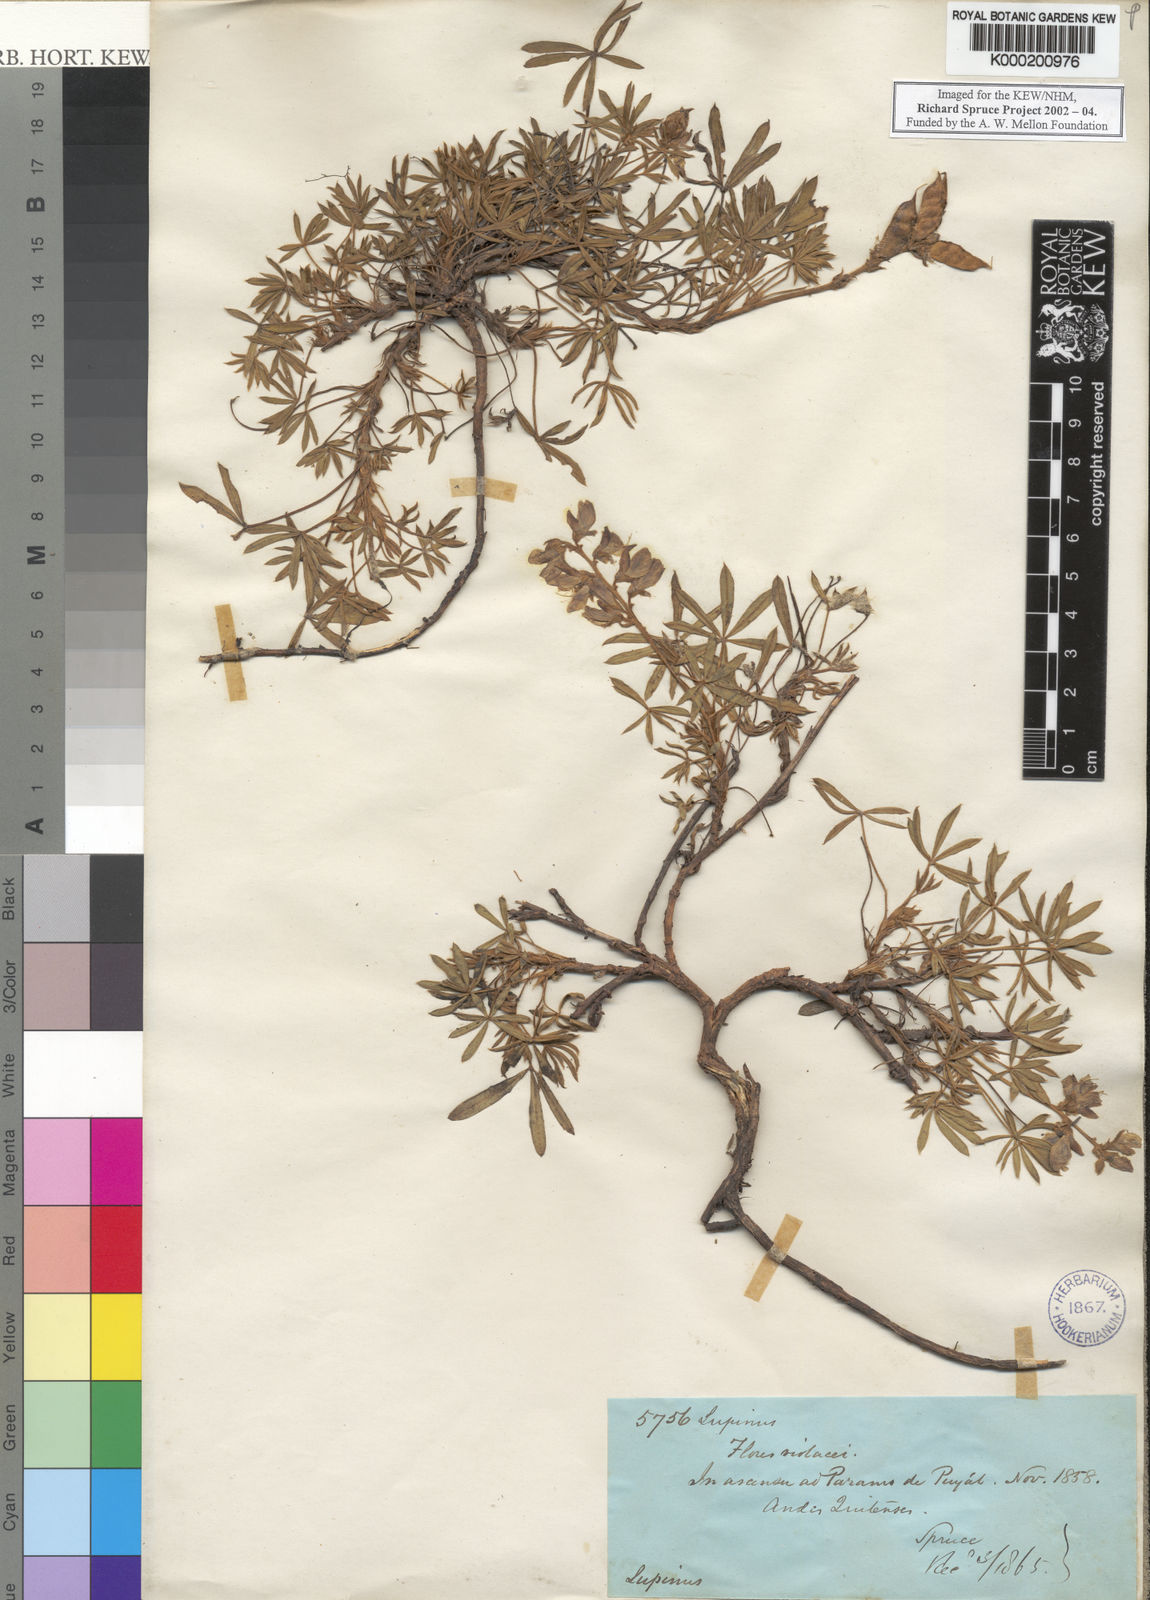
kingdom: Plantae
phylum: Tracheophyta
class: Magnoliopsida
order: Fabales
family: Fabaceae
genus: Lupinus
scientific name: Lupinus rupestris
